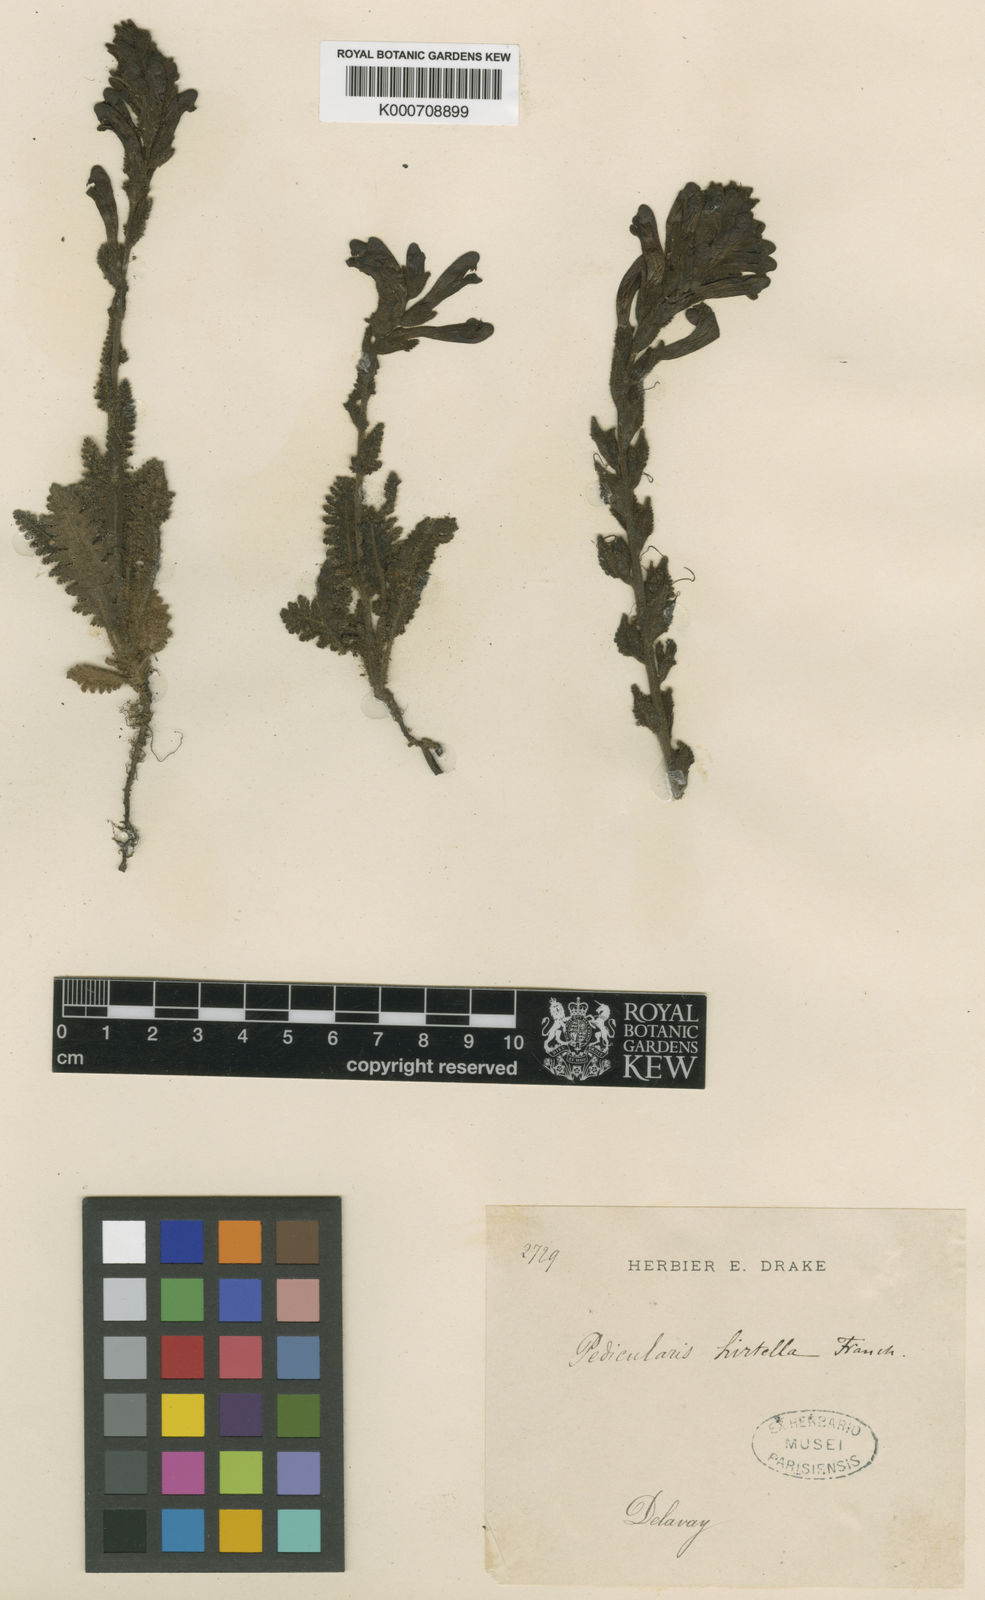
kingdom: Plantae
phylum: Tracheophyta
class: Magnoliopsida
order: Lamiales
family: Orobanchaceae
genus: Pedicularis
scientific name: Pedicularis
